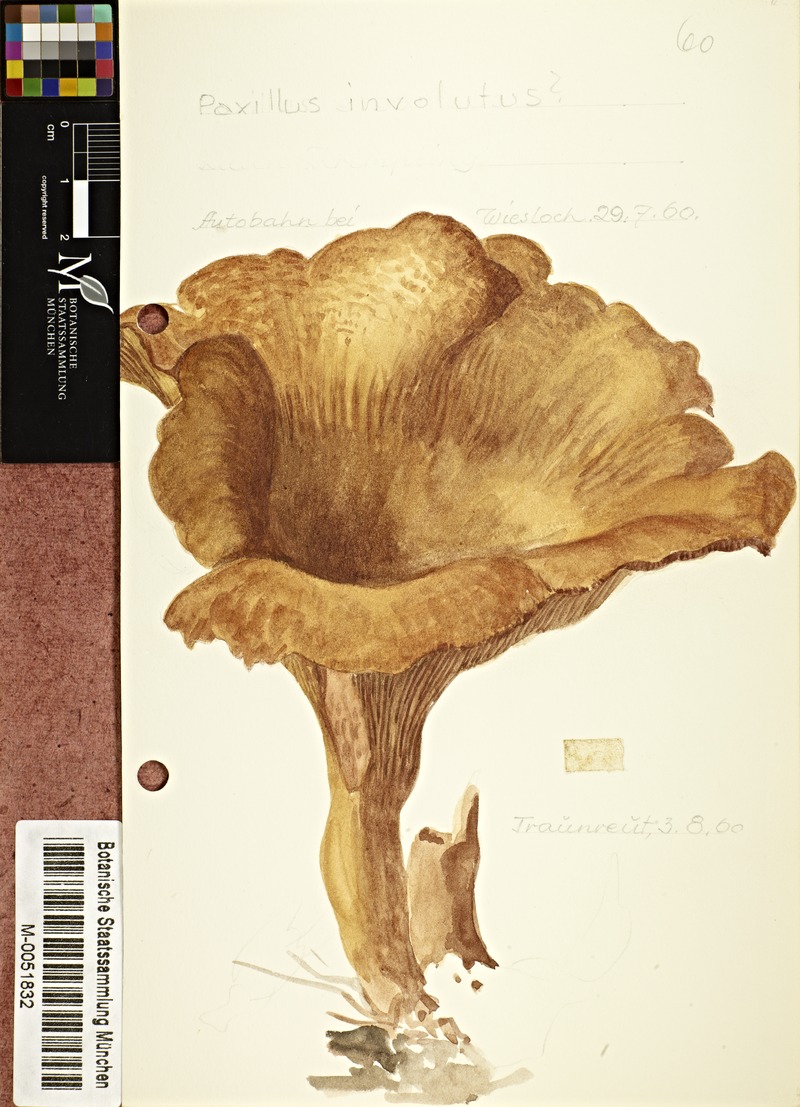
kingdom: Fungi
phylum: Basidiomycota
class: Agaricomycetes
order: Boletales
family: Paxillaceae
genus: Paxillus
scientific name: Paxillus involutus
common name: Brown roll rim
